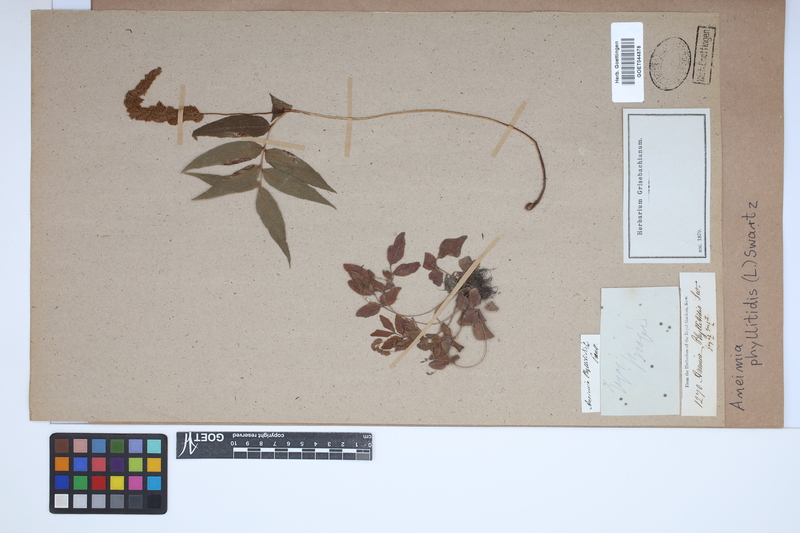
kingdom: Plantae
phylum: Tracheophyta
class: Polypodiopsida
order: Schizaeales
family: Anemiaceae
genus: Anemia
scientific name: Anemia phyllitidis
